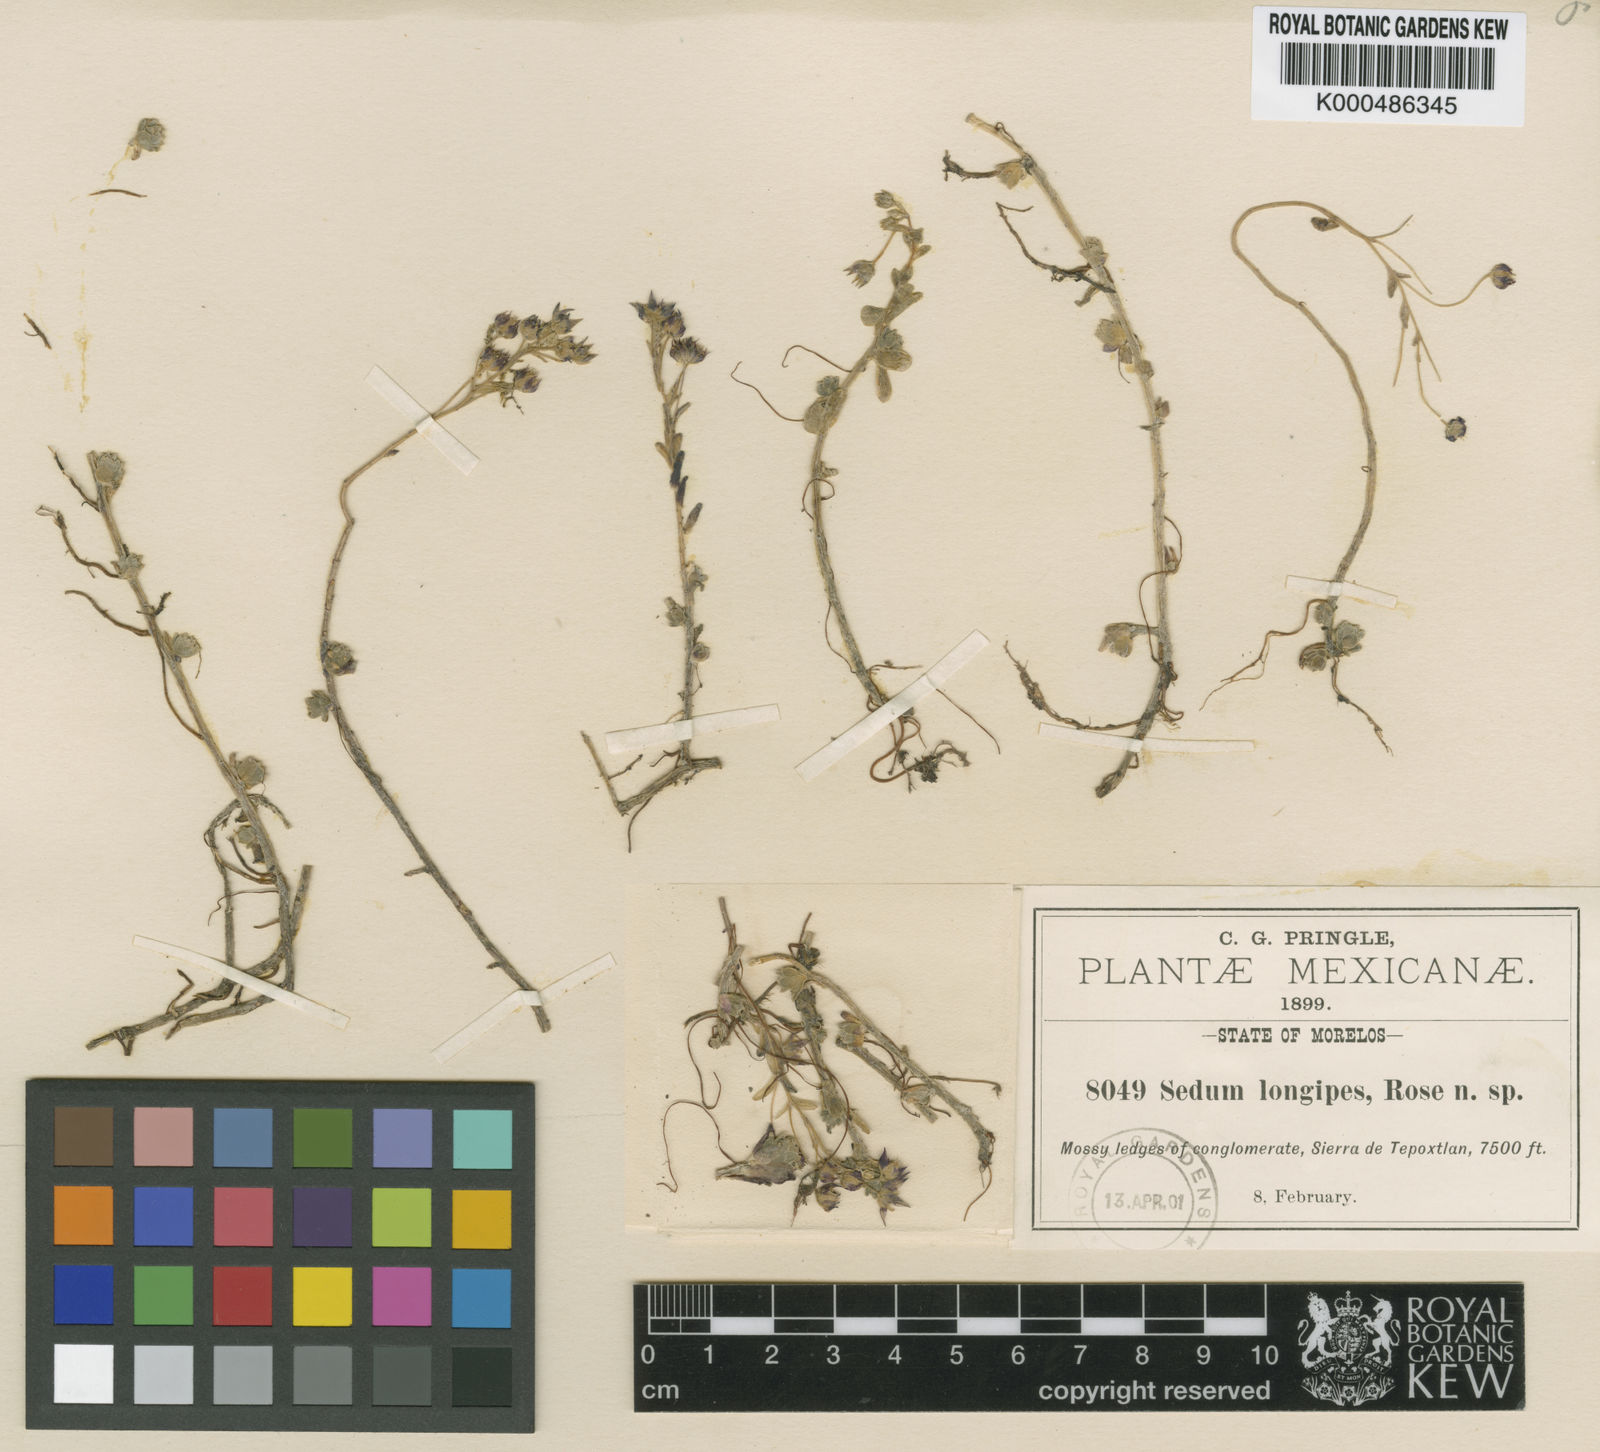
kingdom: Plantae
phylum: Tracheophyta
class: Magnoliopsida
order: Saxifragales
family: Crassulaceae
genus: Sedum
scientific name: Sedum longipes
